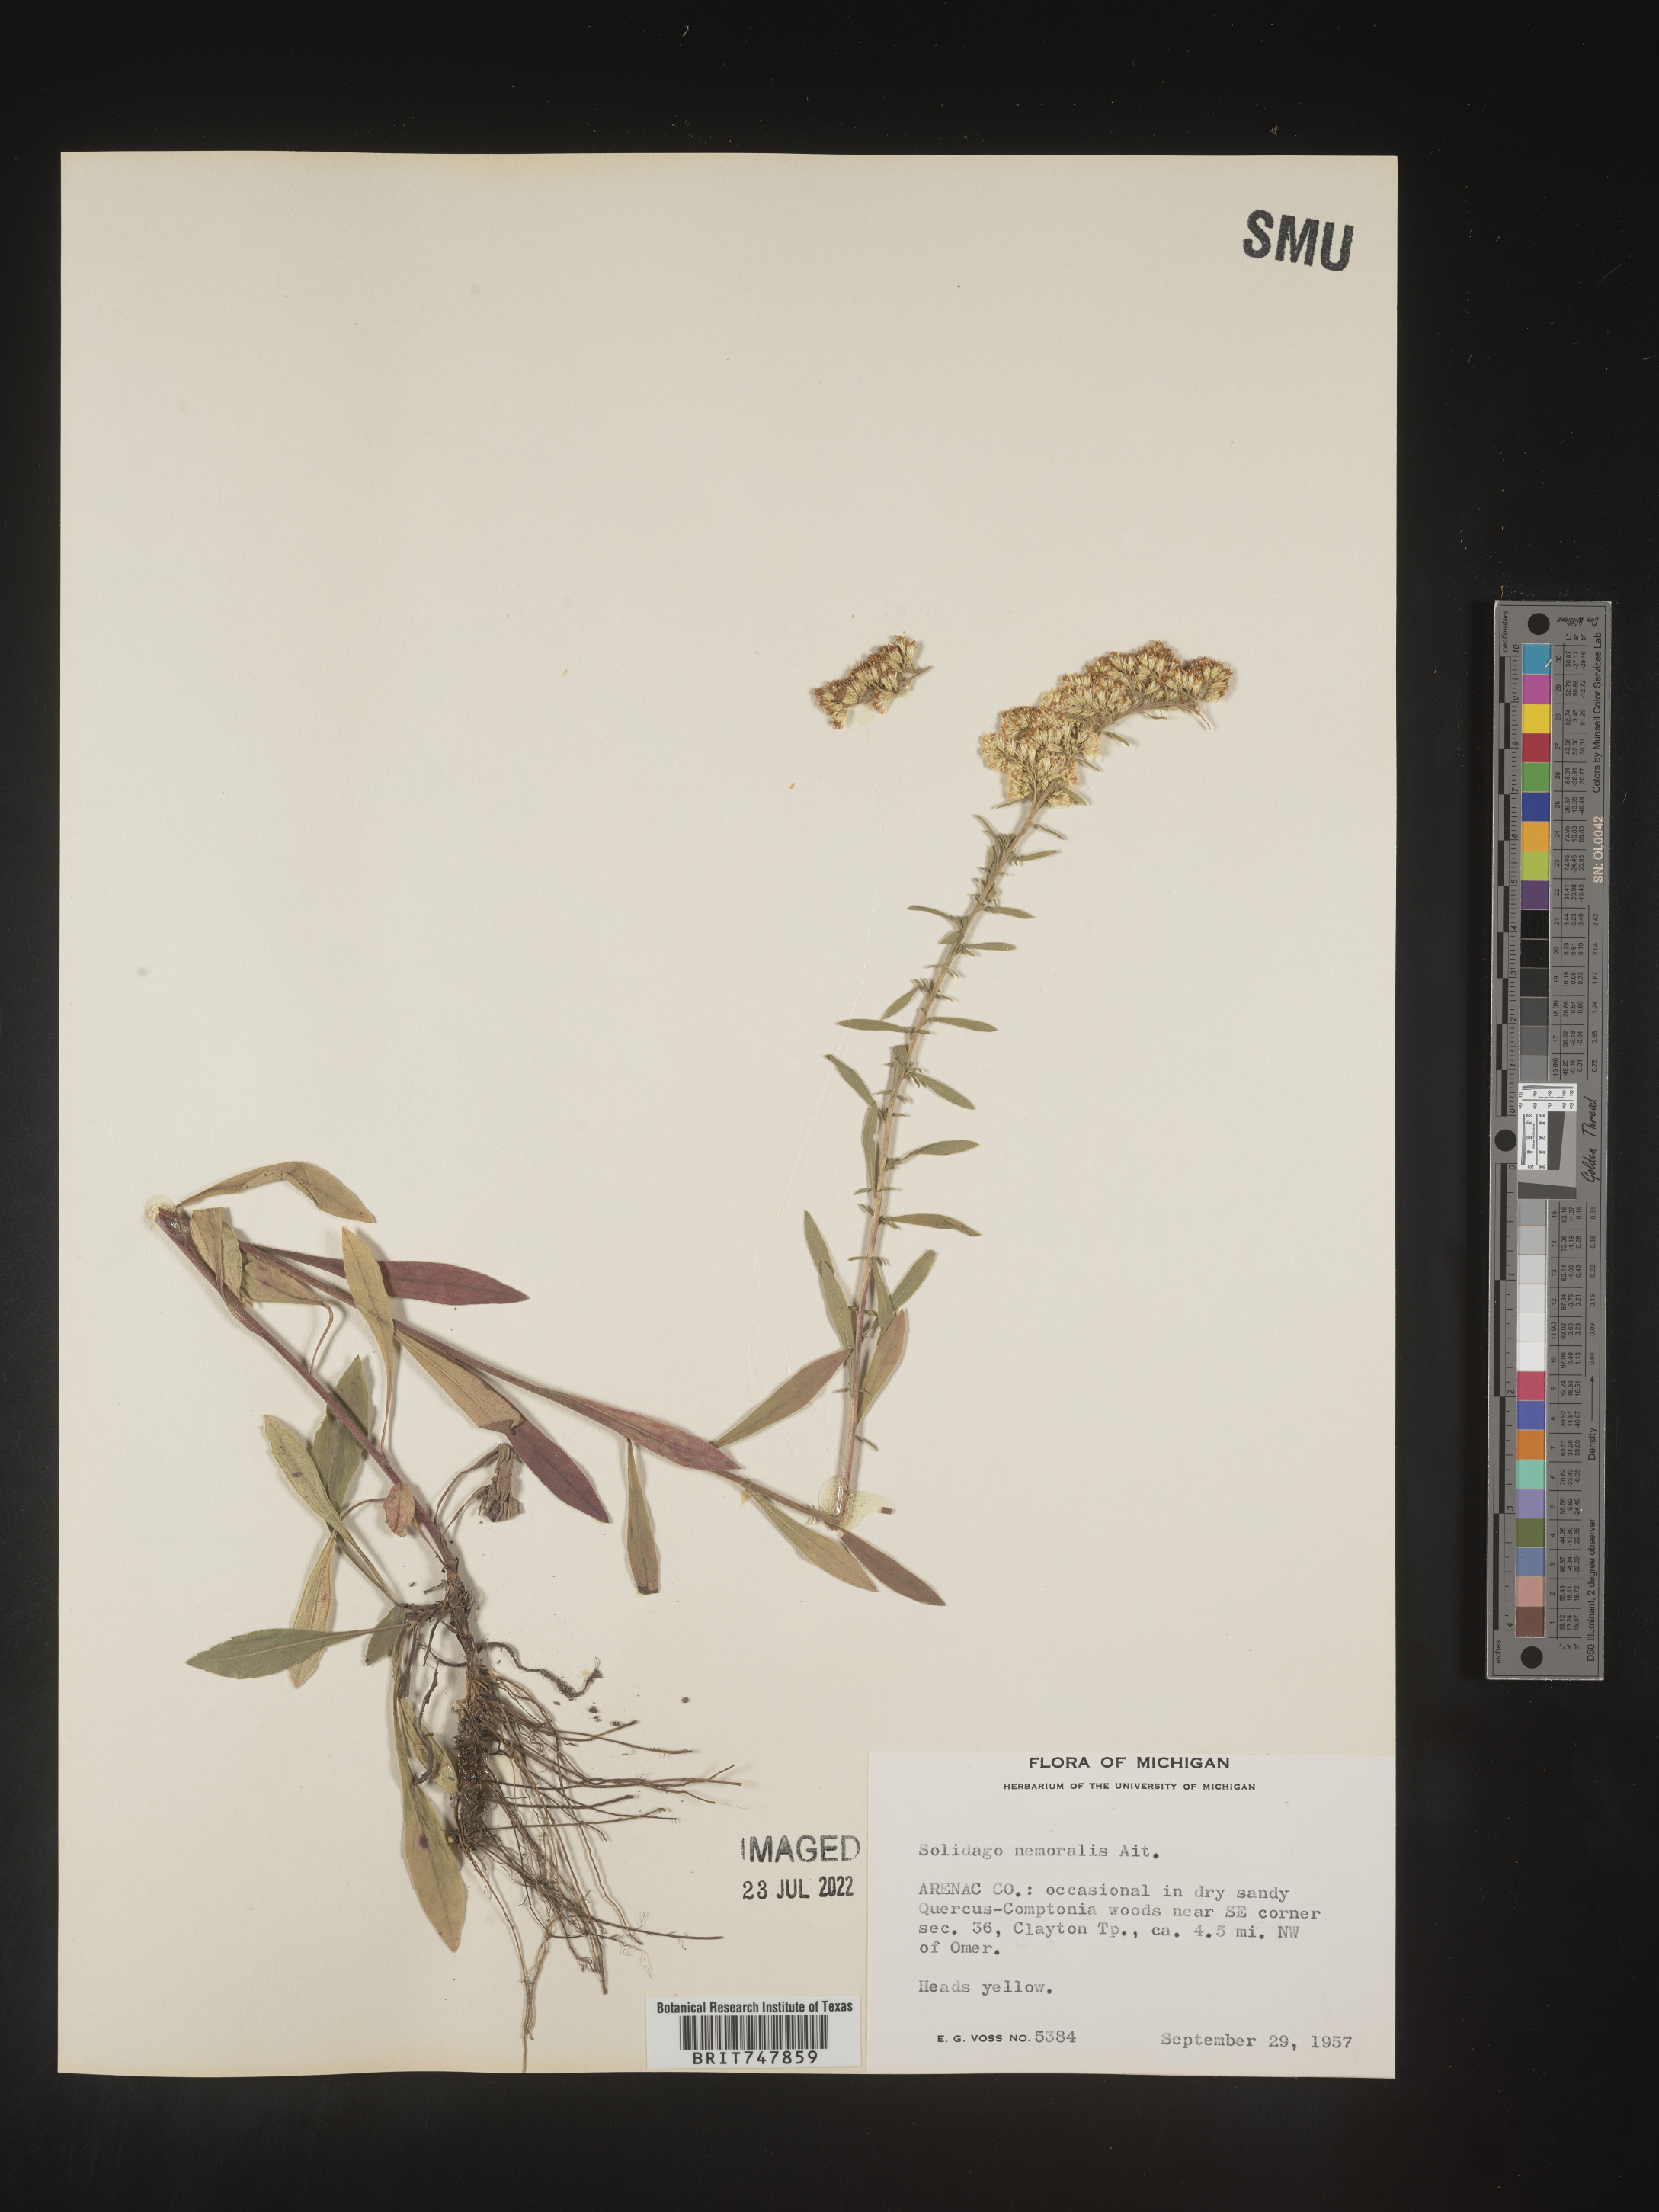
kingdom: Plantae
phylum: Tracheophyta
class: Magnoliopsida
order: Asterales
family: Asteraceae
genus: Solidago
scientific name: Solidago nemoralis
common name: Grey goldenrod
